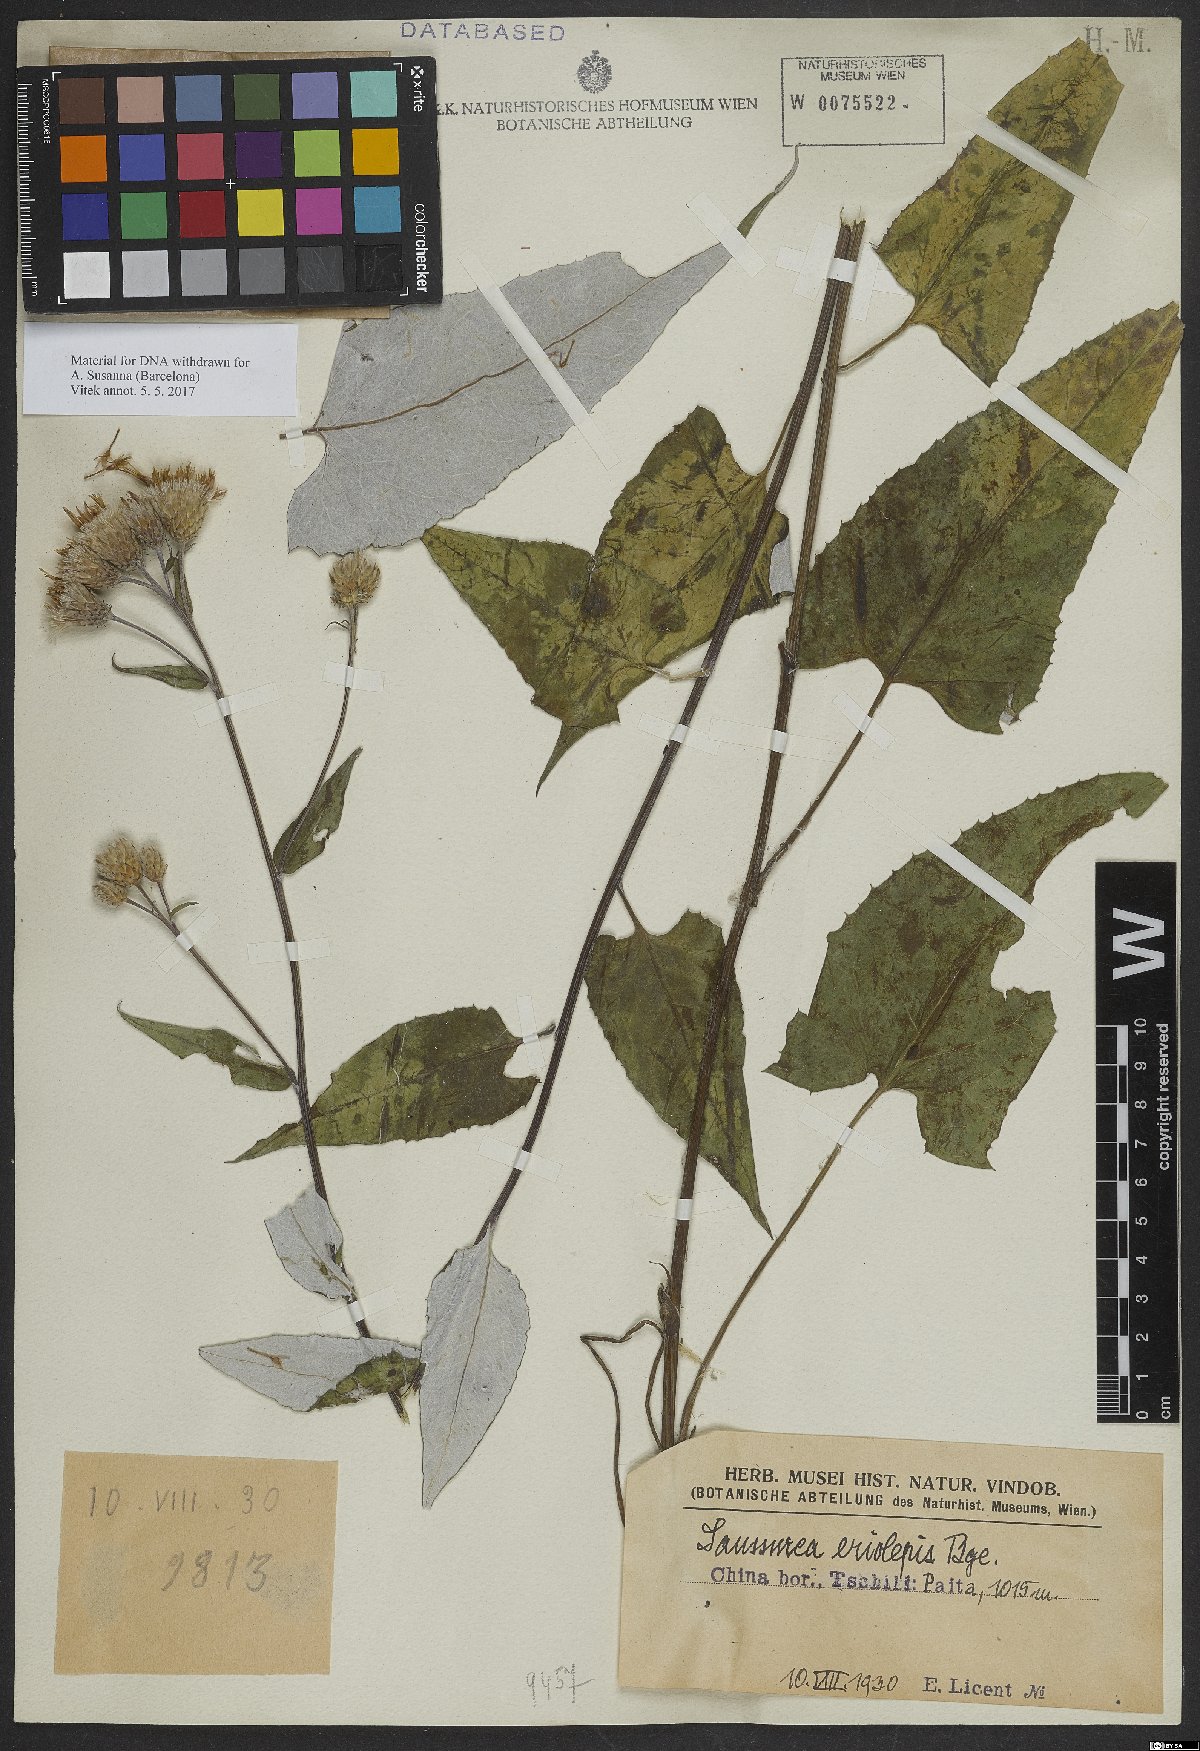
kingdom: Plantae
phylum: Tracheophyta
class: Magnoliopsida
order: Asterales
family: Asteraceae
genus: Saussurea
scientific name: Saussurea nivea
